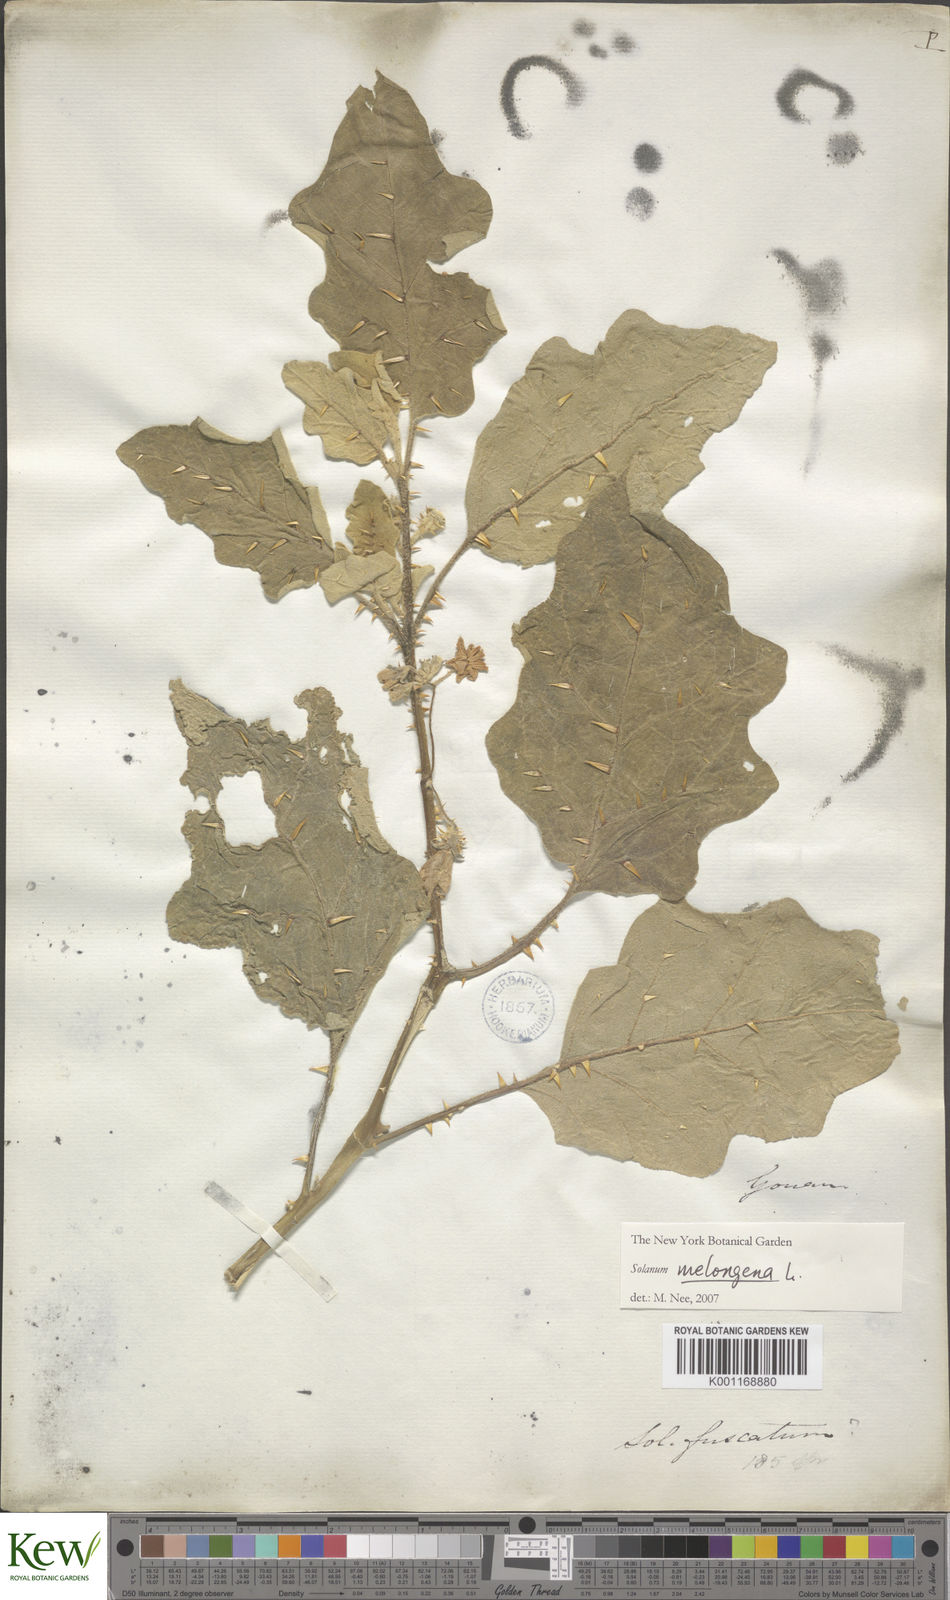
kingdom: Plantae
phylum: Tracheophyta
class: Magnoliopsida
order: Solanales
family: Solanaceae
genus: Solanum
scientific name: Solanum insanum
